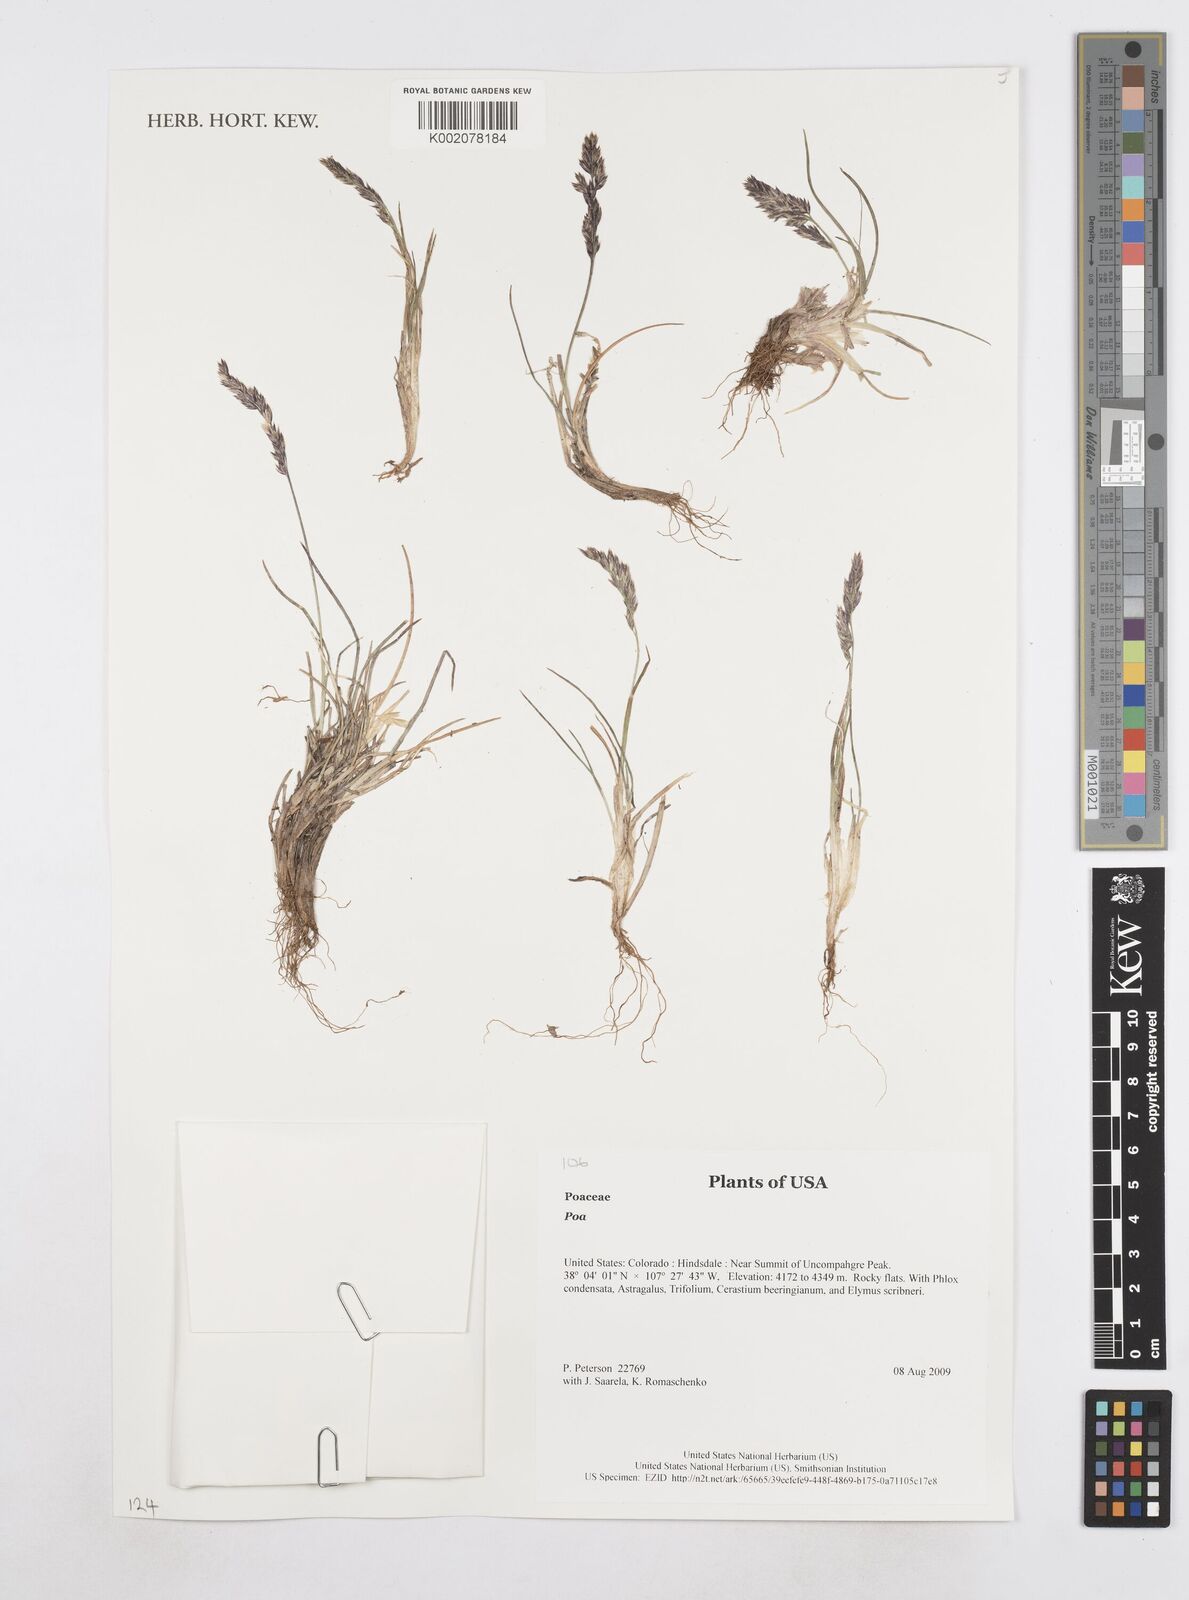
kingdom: Plantae
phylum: Tracheophyta
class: Liliopsida
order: Poales
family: Poaceae
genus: Poa
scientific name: Poa
